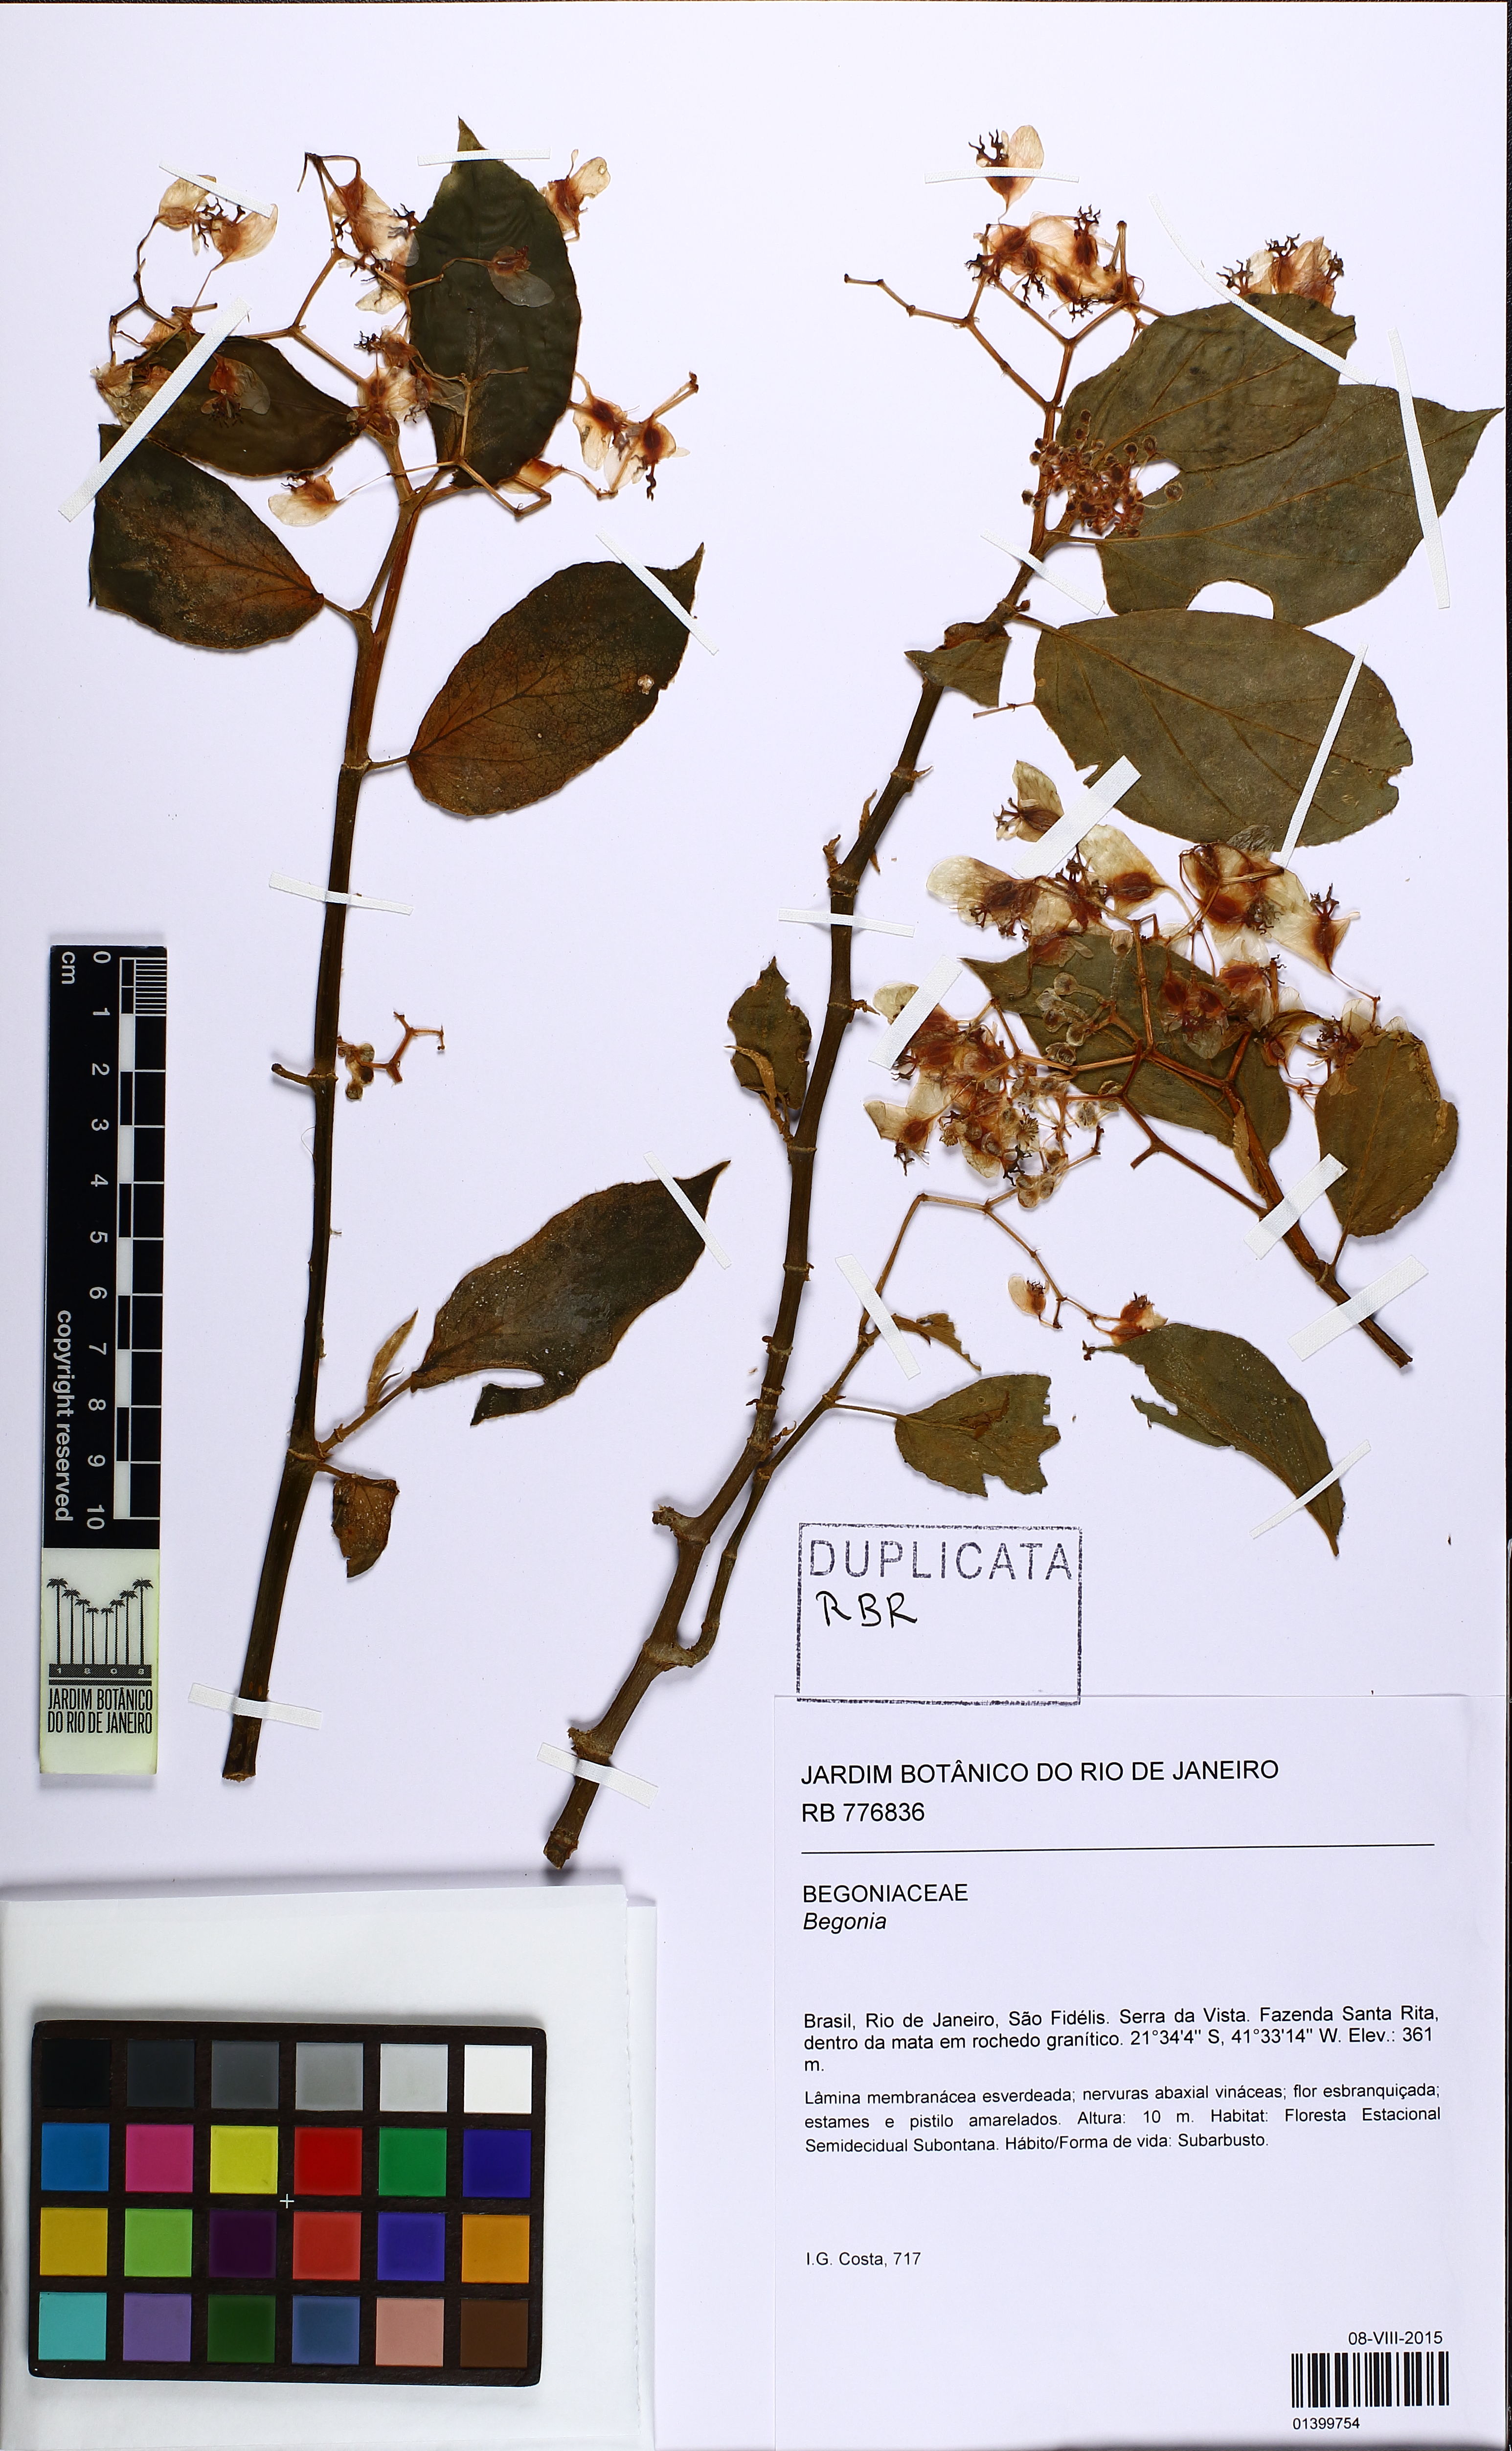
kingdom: Plantae
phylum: Tracheophyta
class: Magnoliopsida
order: Cucurbitales
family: Begoniaceae
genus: Begonia
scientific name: Begonia saxicola
